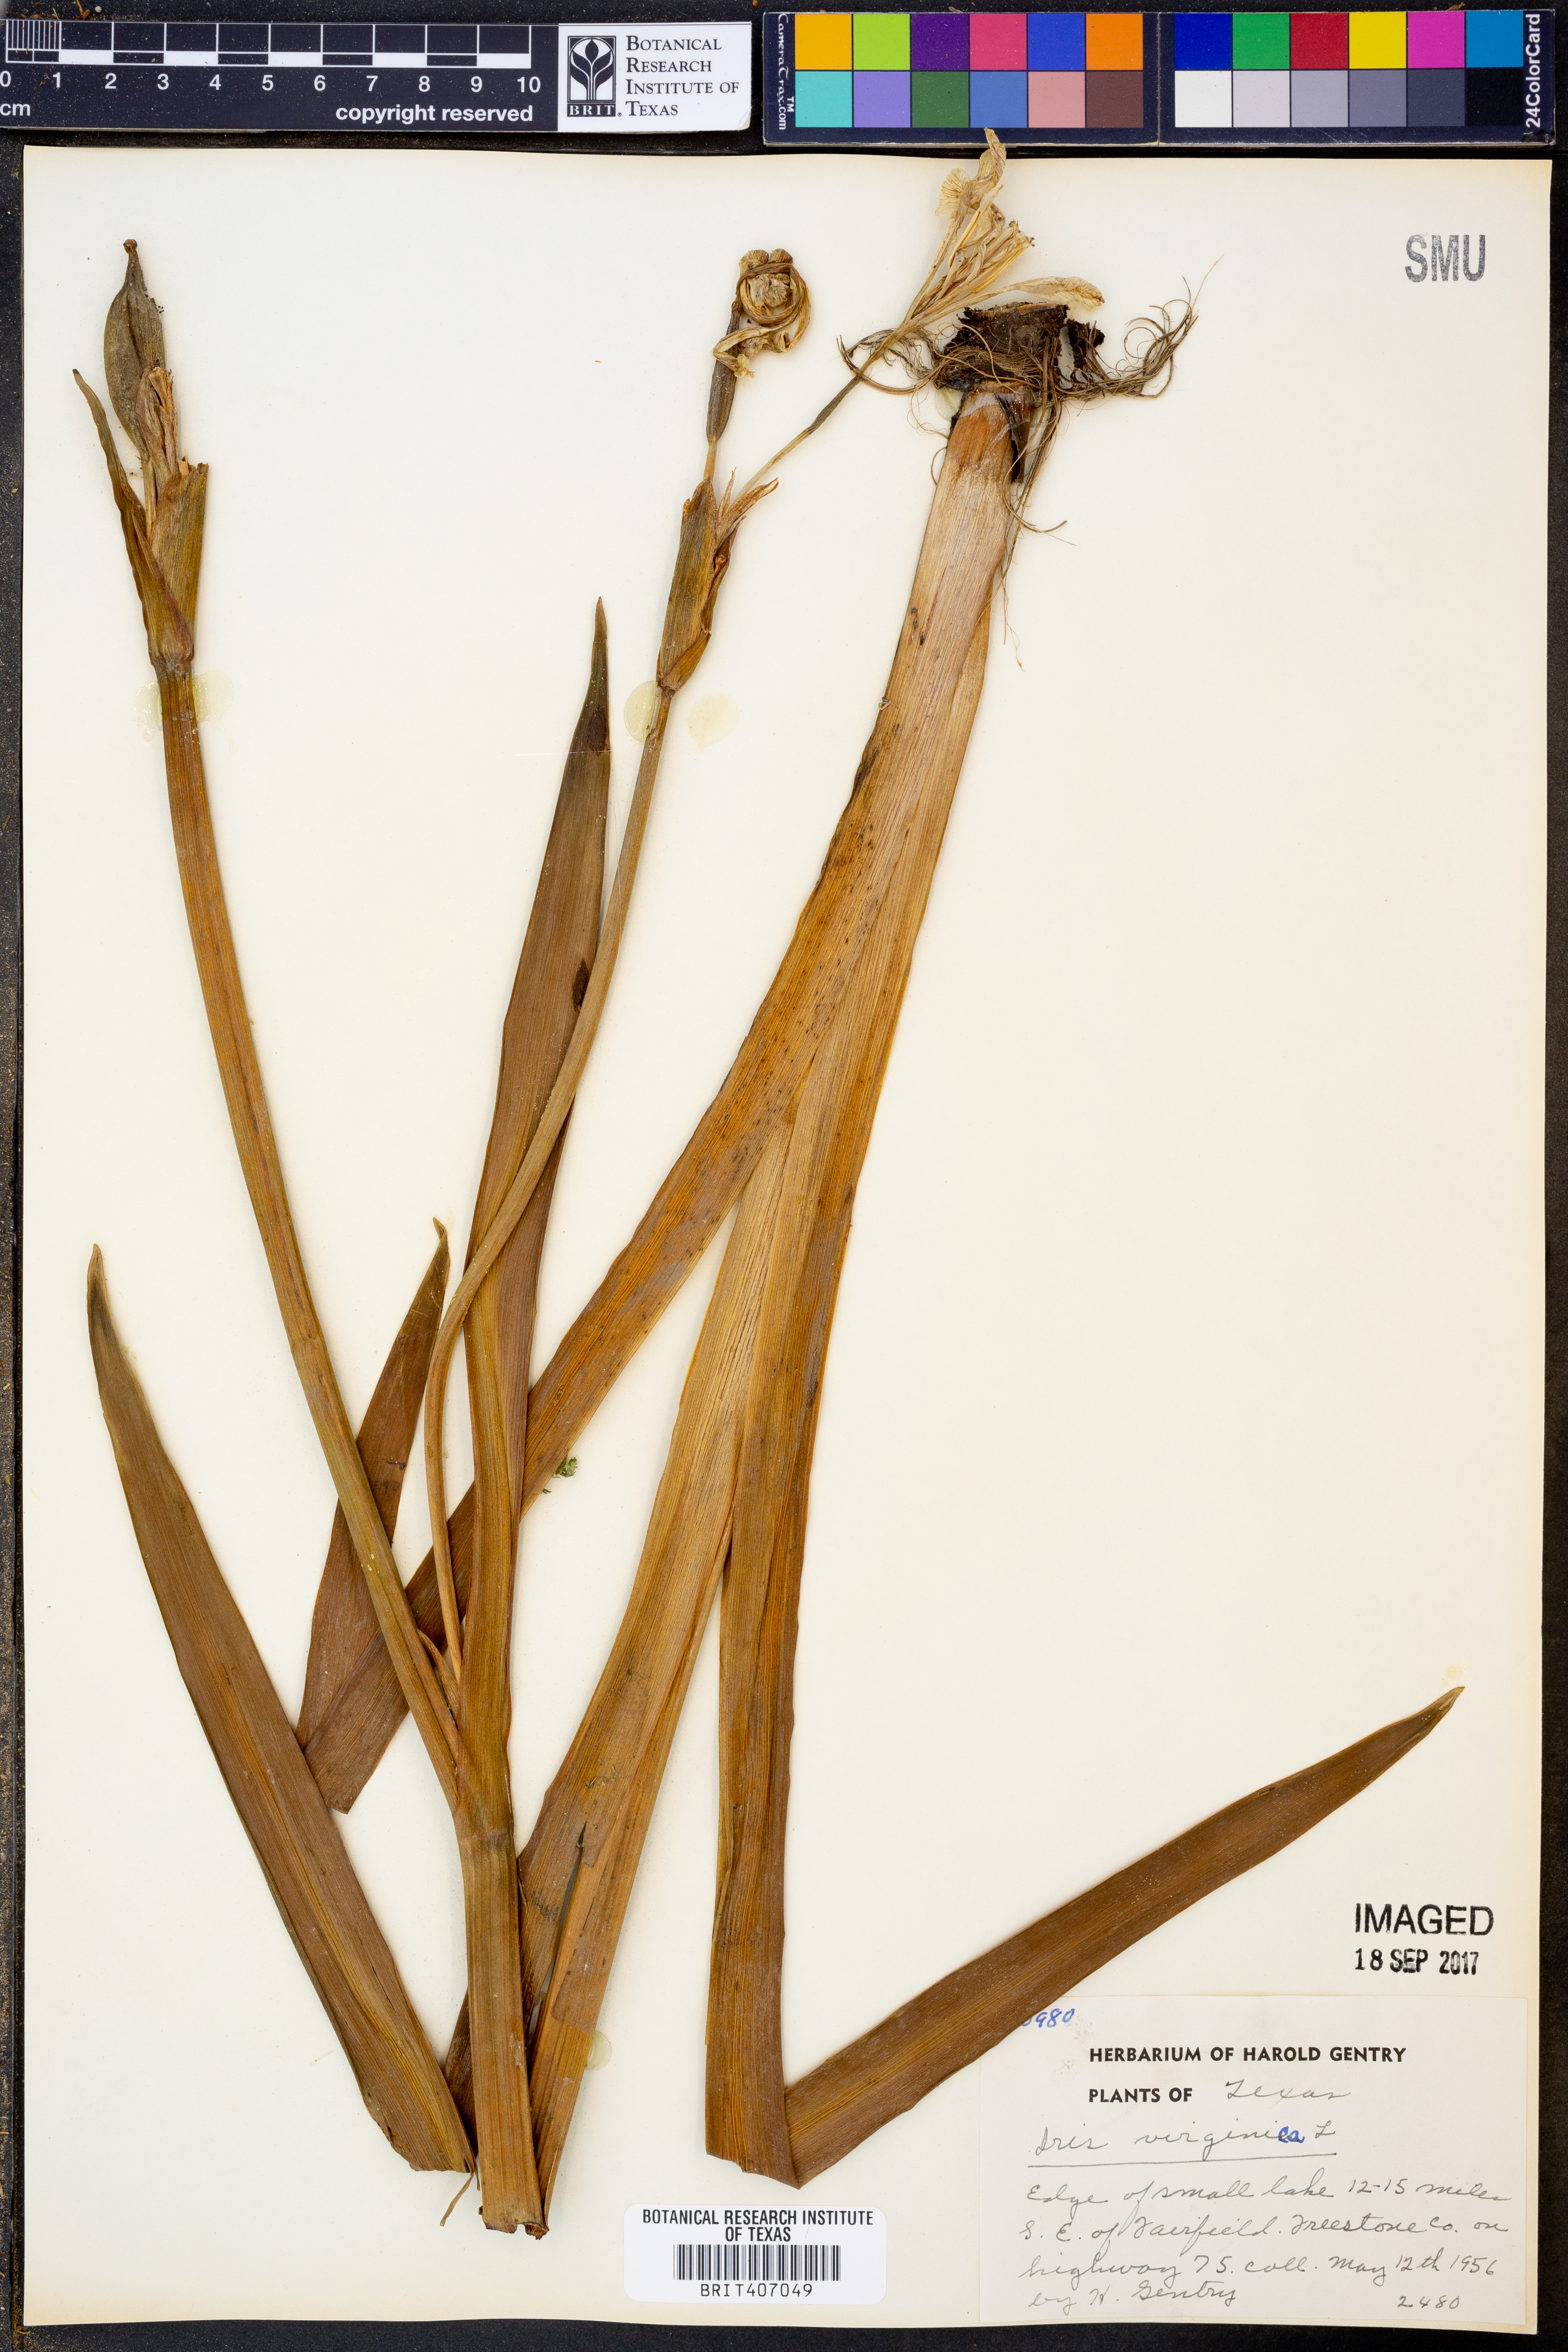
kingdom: Plantae
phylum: Tracheophyta
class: Liliopsida
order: Asparagales
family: Iridaceae
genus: Iris
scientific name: Iris virginica
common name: Southern blue flag
